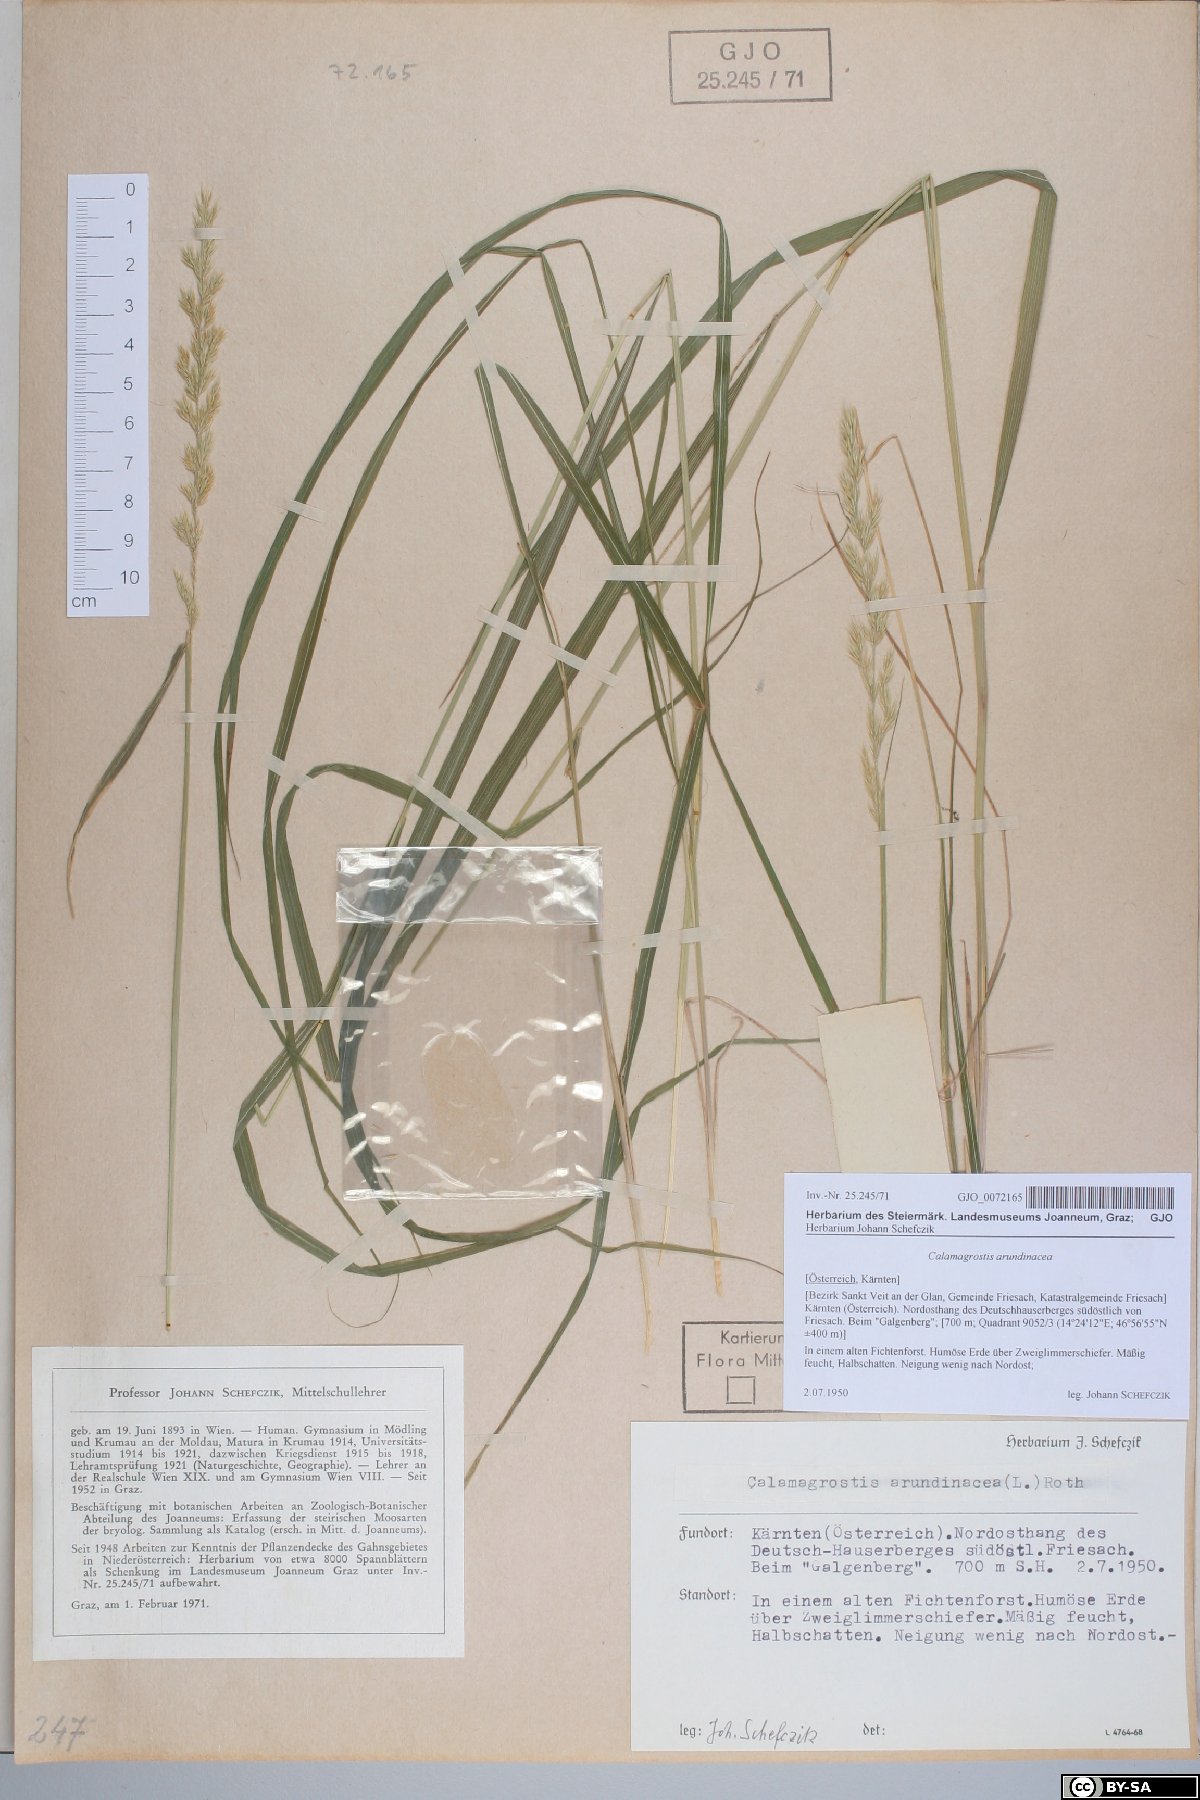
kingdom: Plantae
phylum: Tracheophyta
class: Liliopsida
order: Poales
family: Poaceae
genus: Calamagrostis
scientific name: Calamagrostis arundinacea
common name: Metskastik
